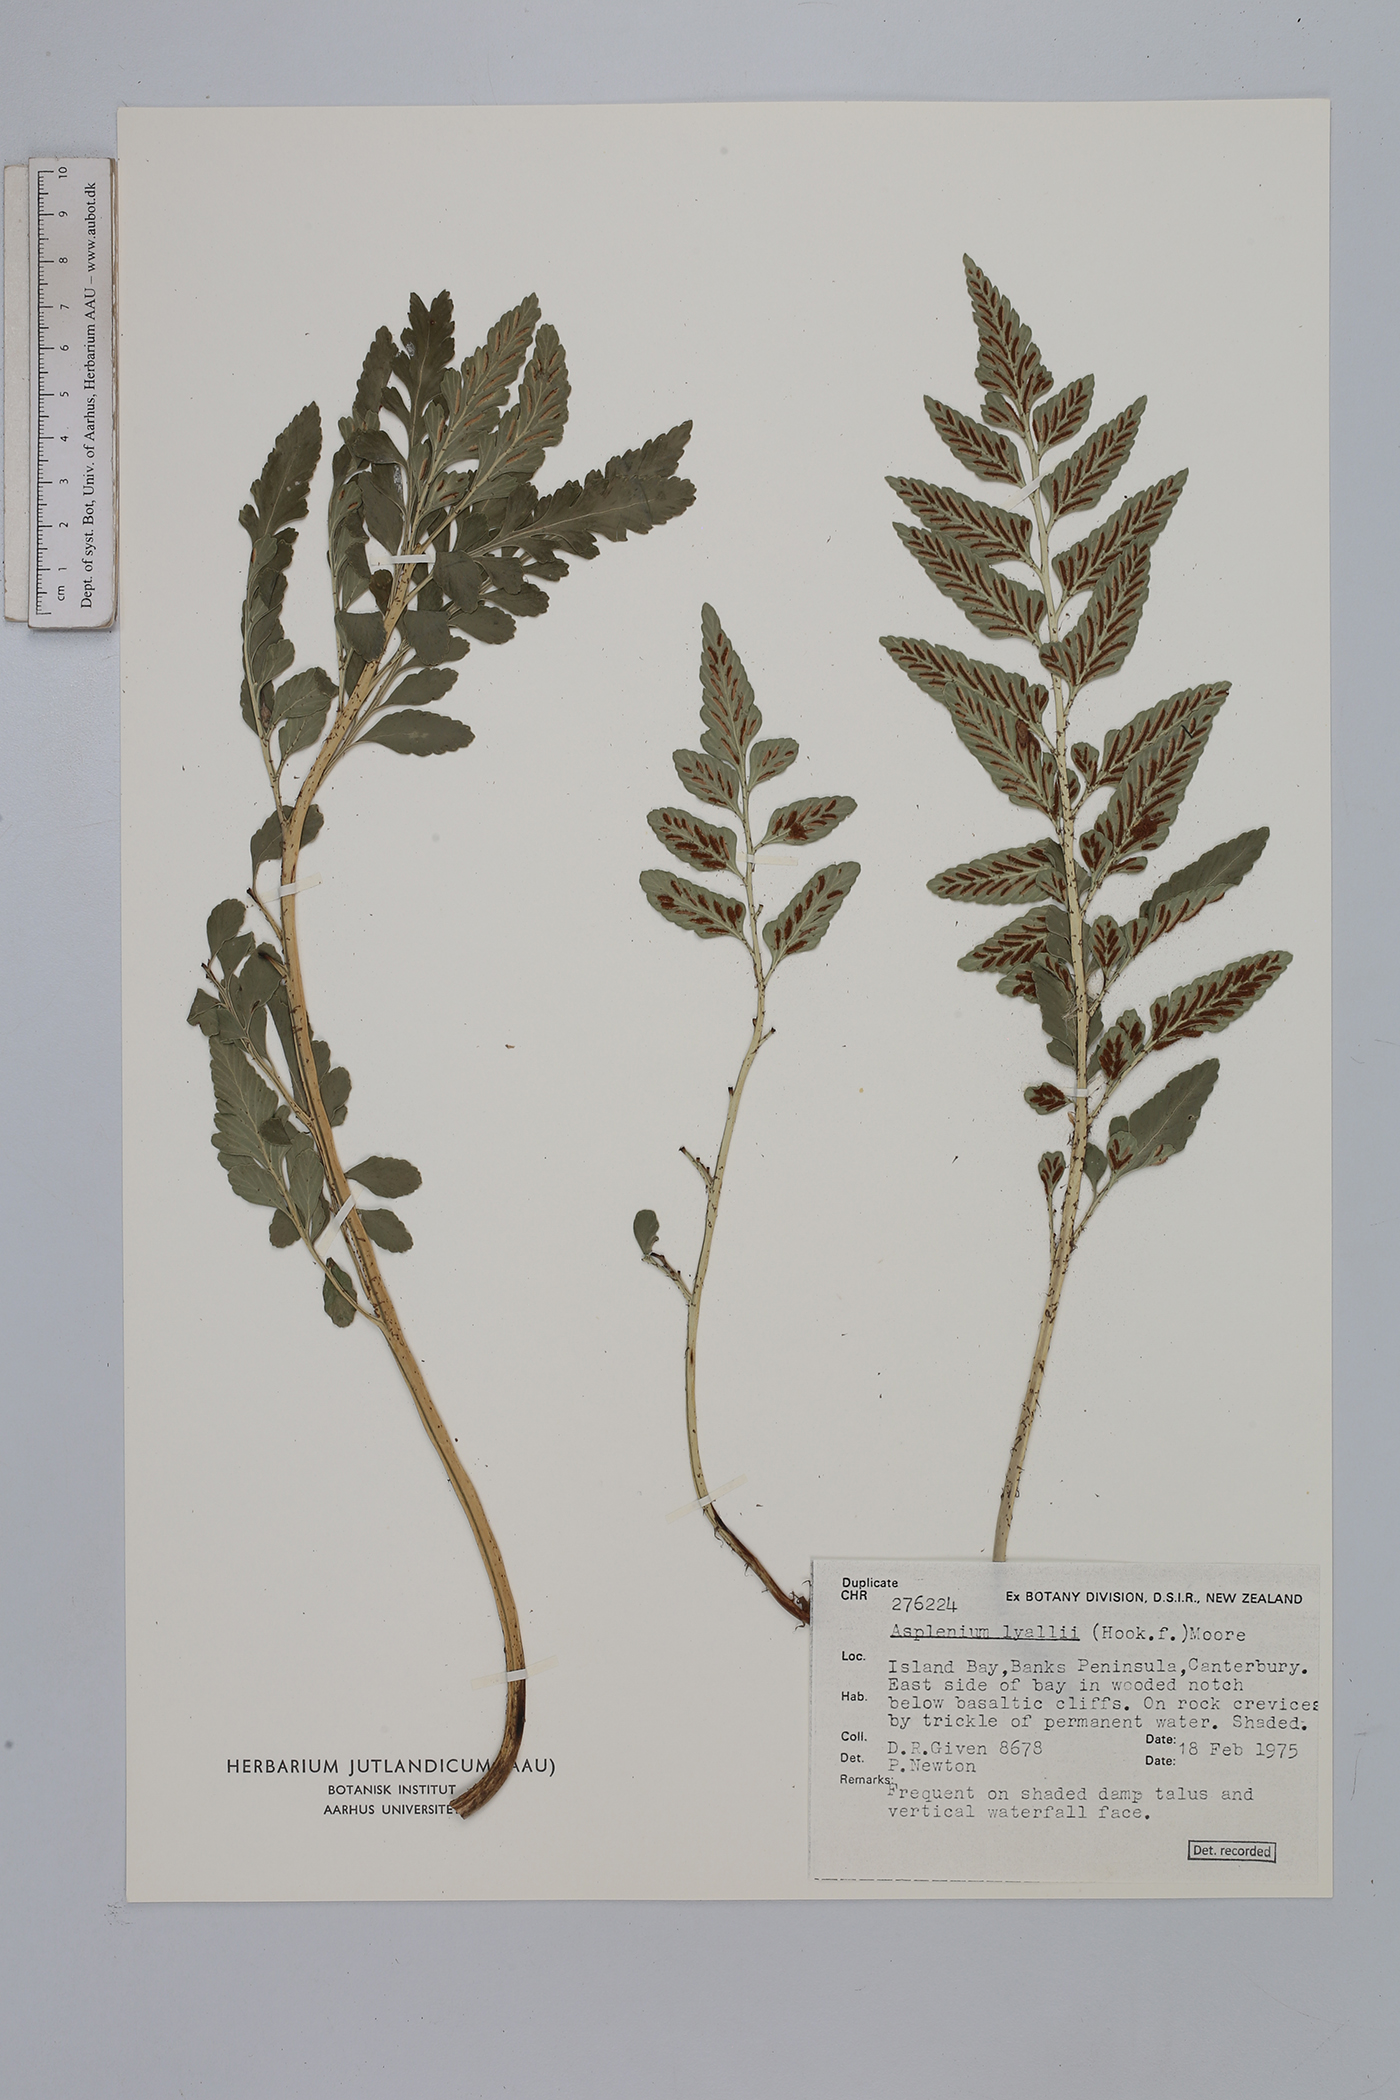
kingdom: Plantae
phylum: Tracheophyta
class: Polypodiopsida
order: Polypodiales
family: Aspleniaceae
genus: Asplenium
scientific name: Asplenium lyallii
